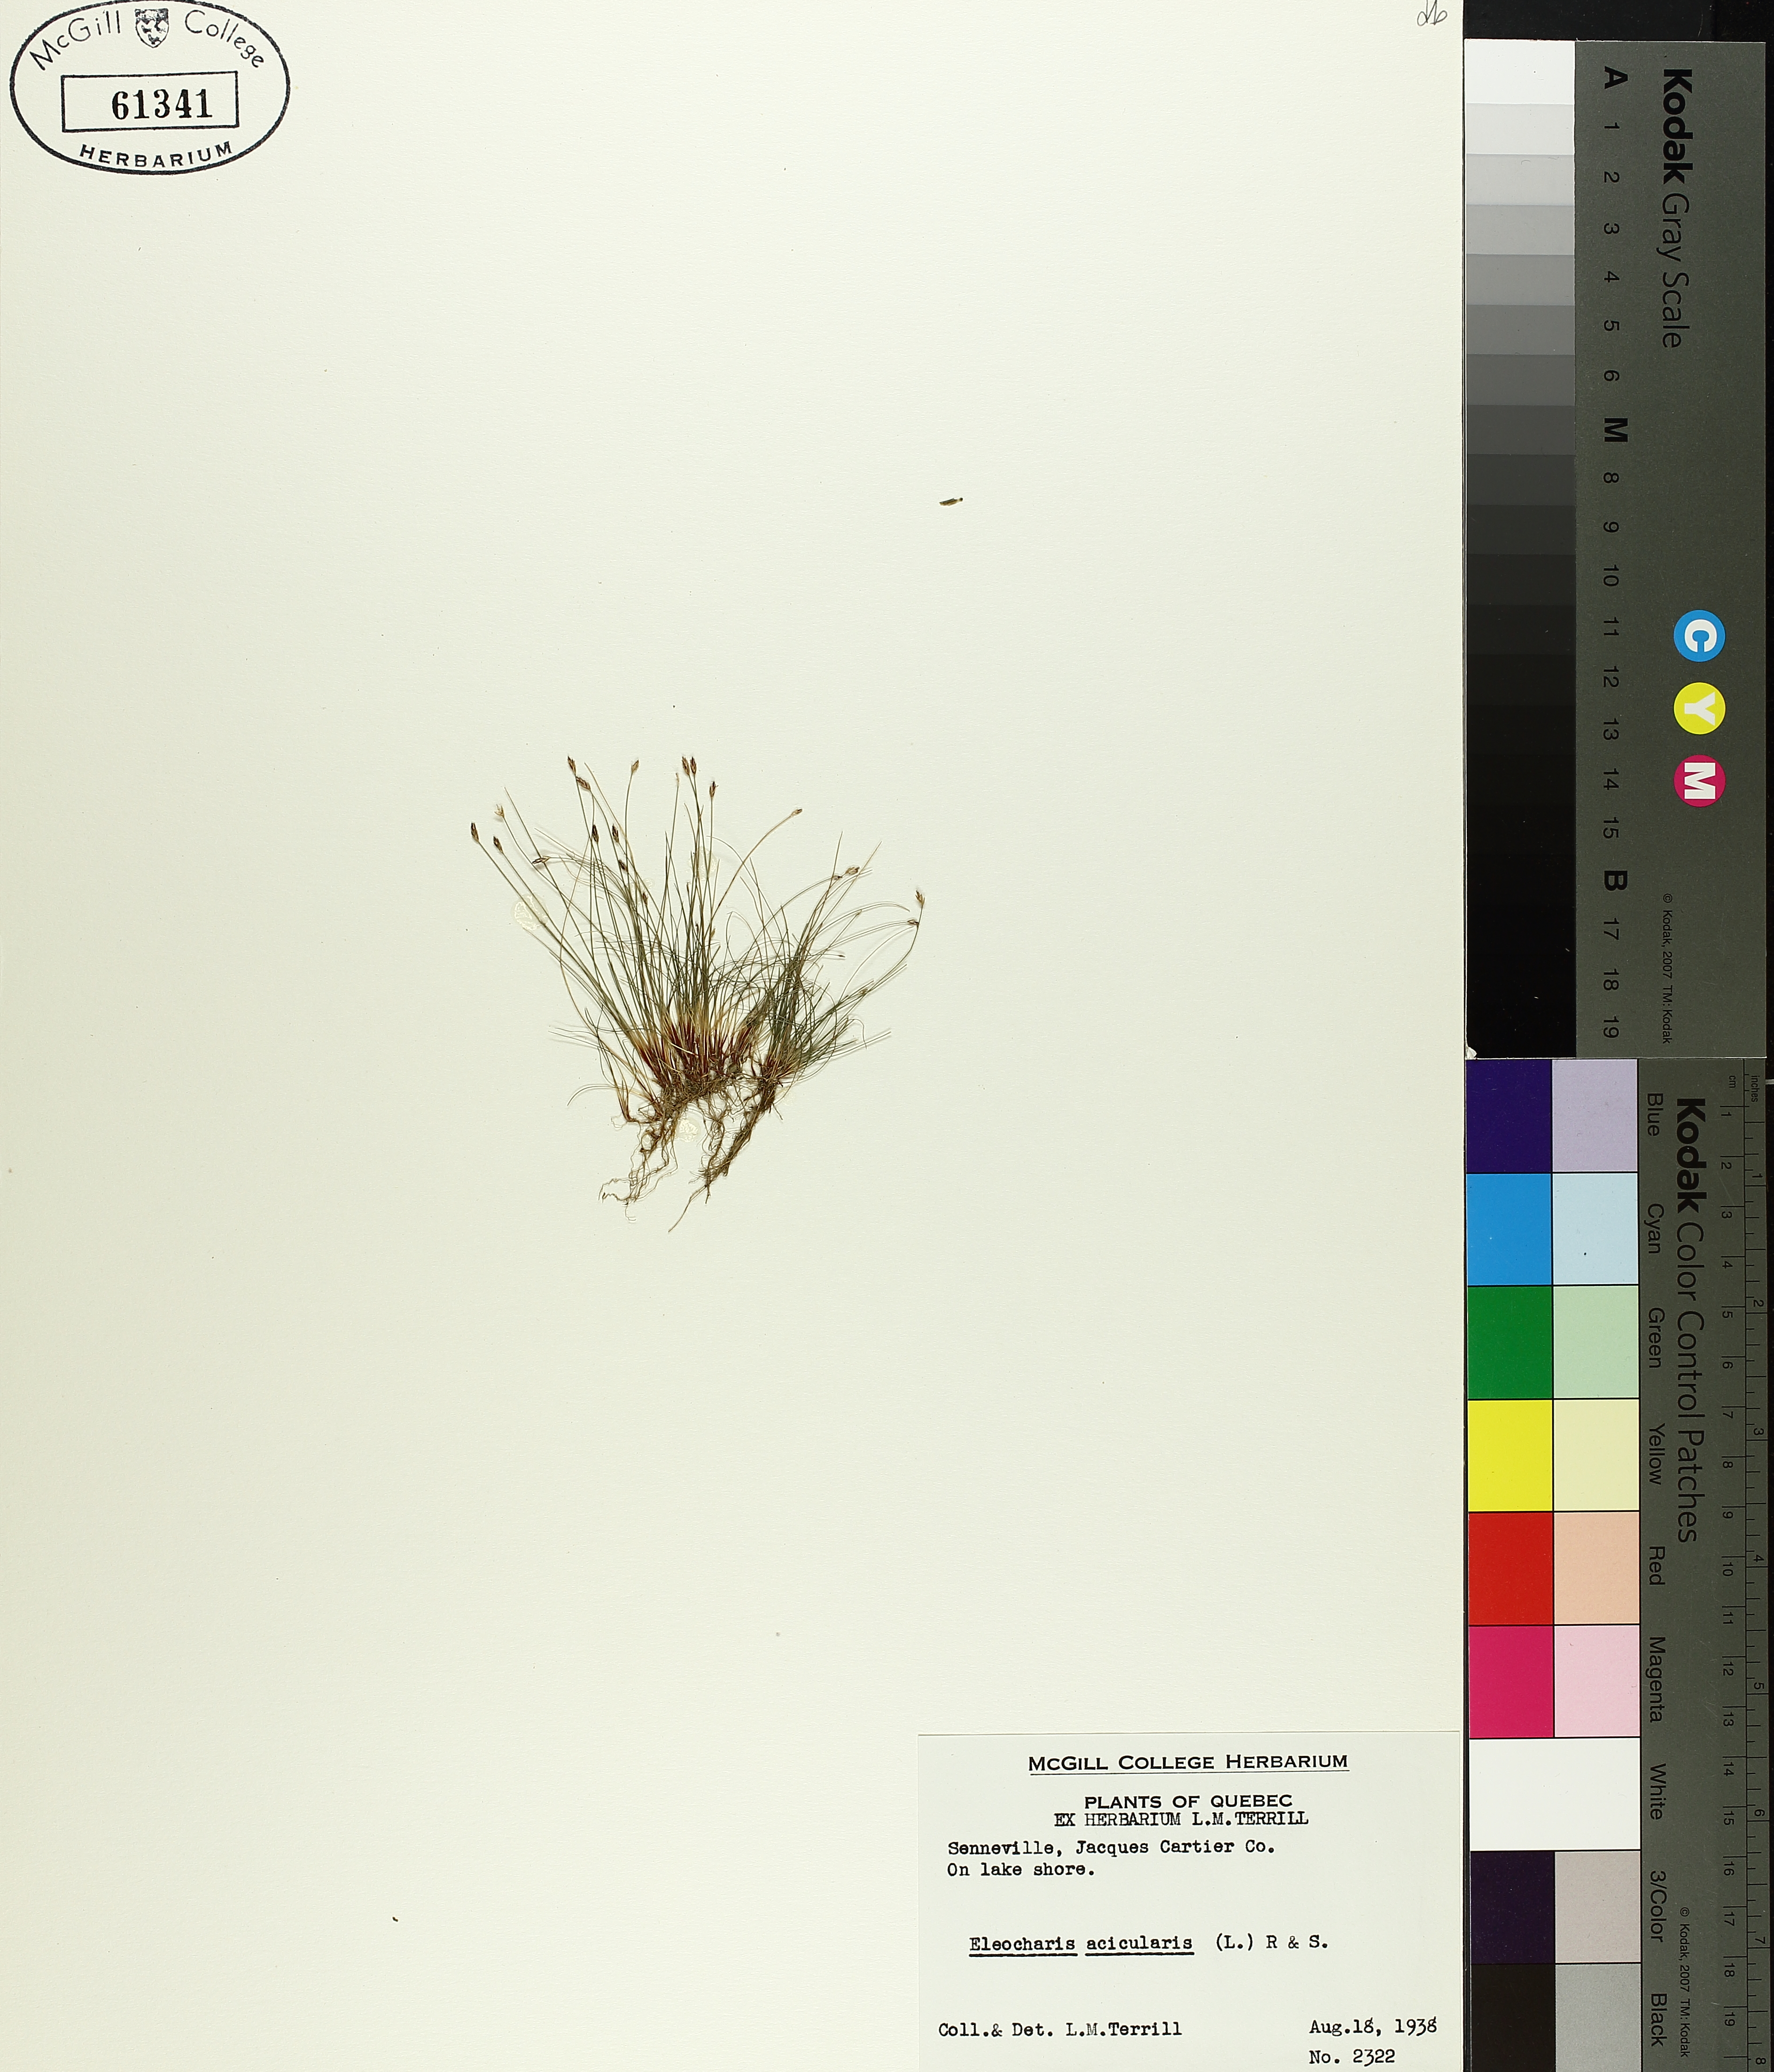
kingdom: Plantae
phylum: Tracheophyta
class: Liliopsida
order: Poales
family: Cyperaceae
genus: Eleocharis
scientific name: Eleocharis acicularis
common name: Needle spike-rush
